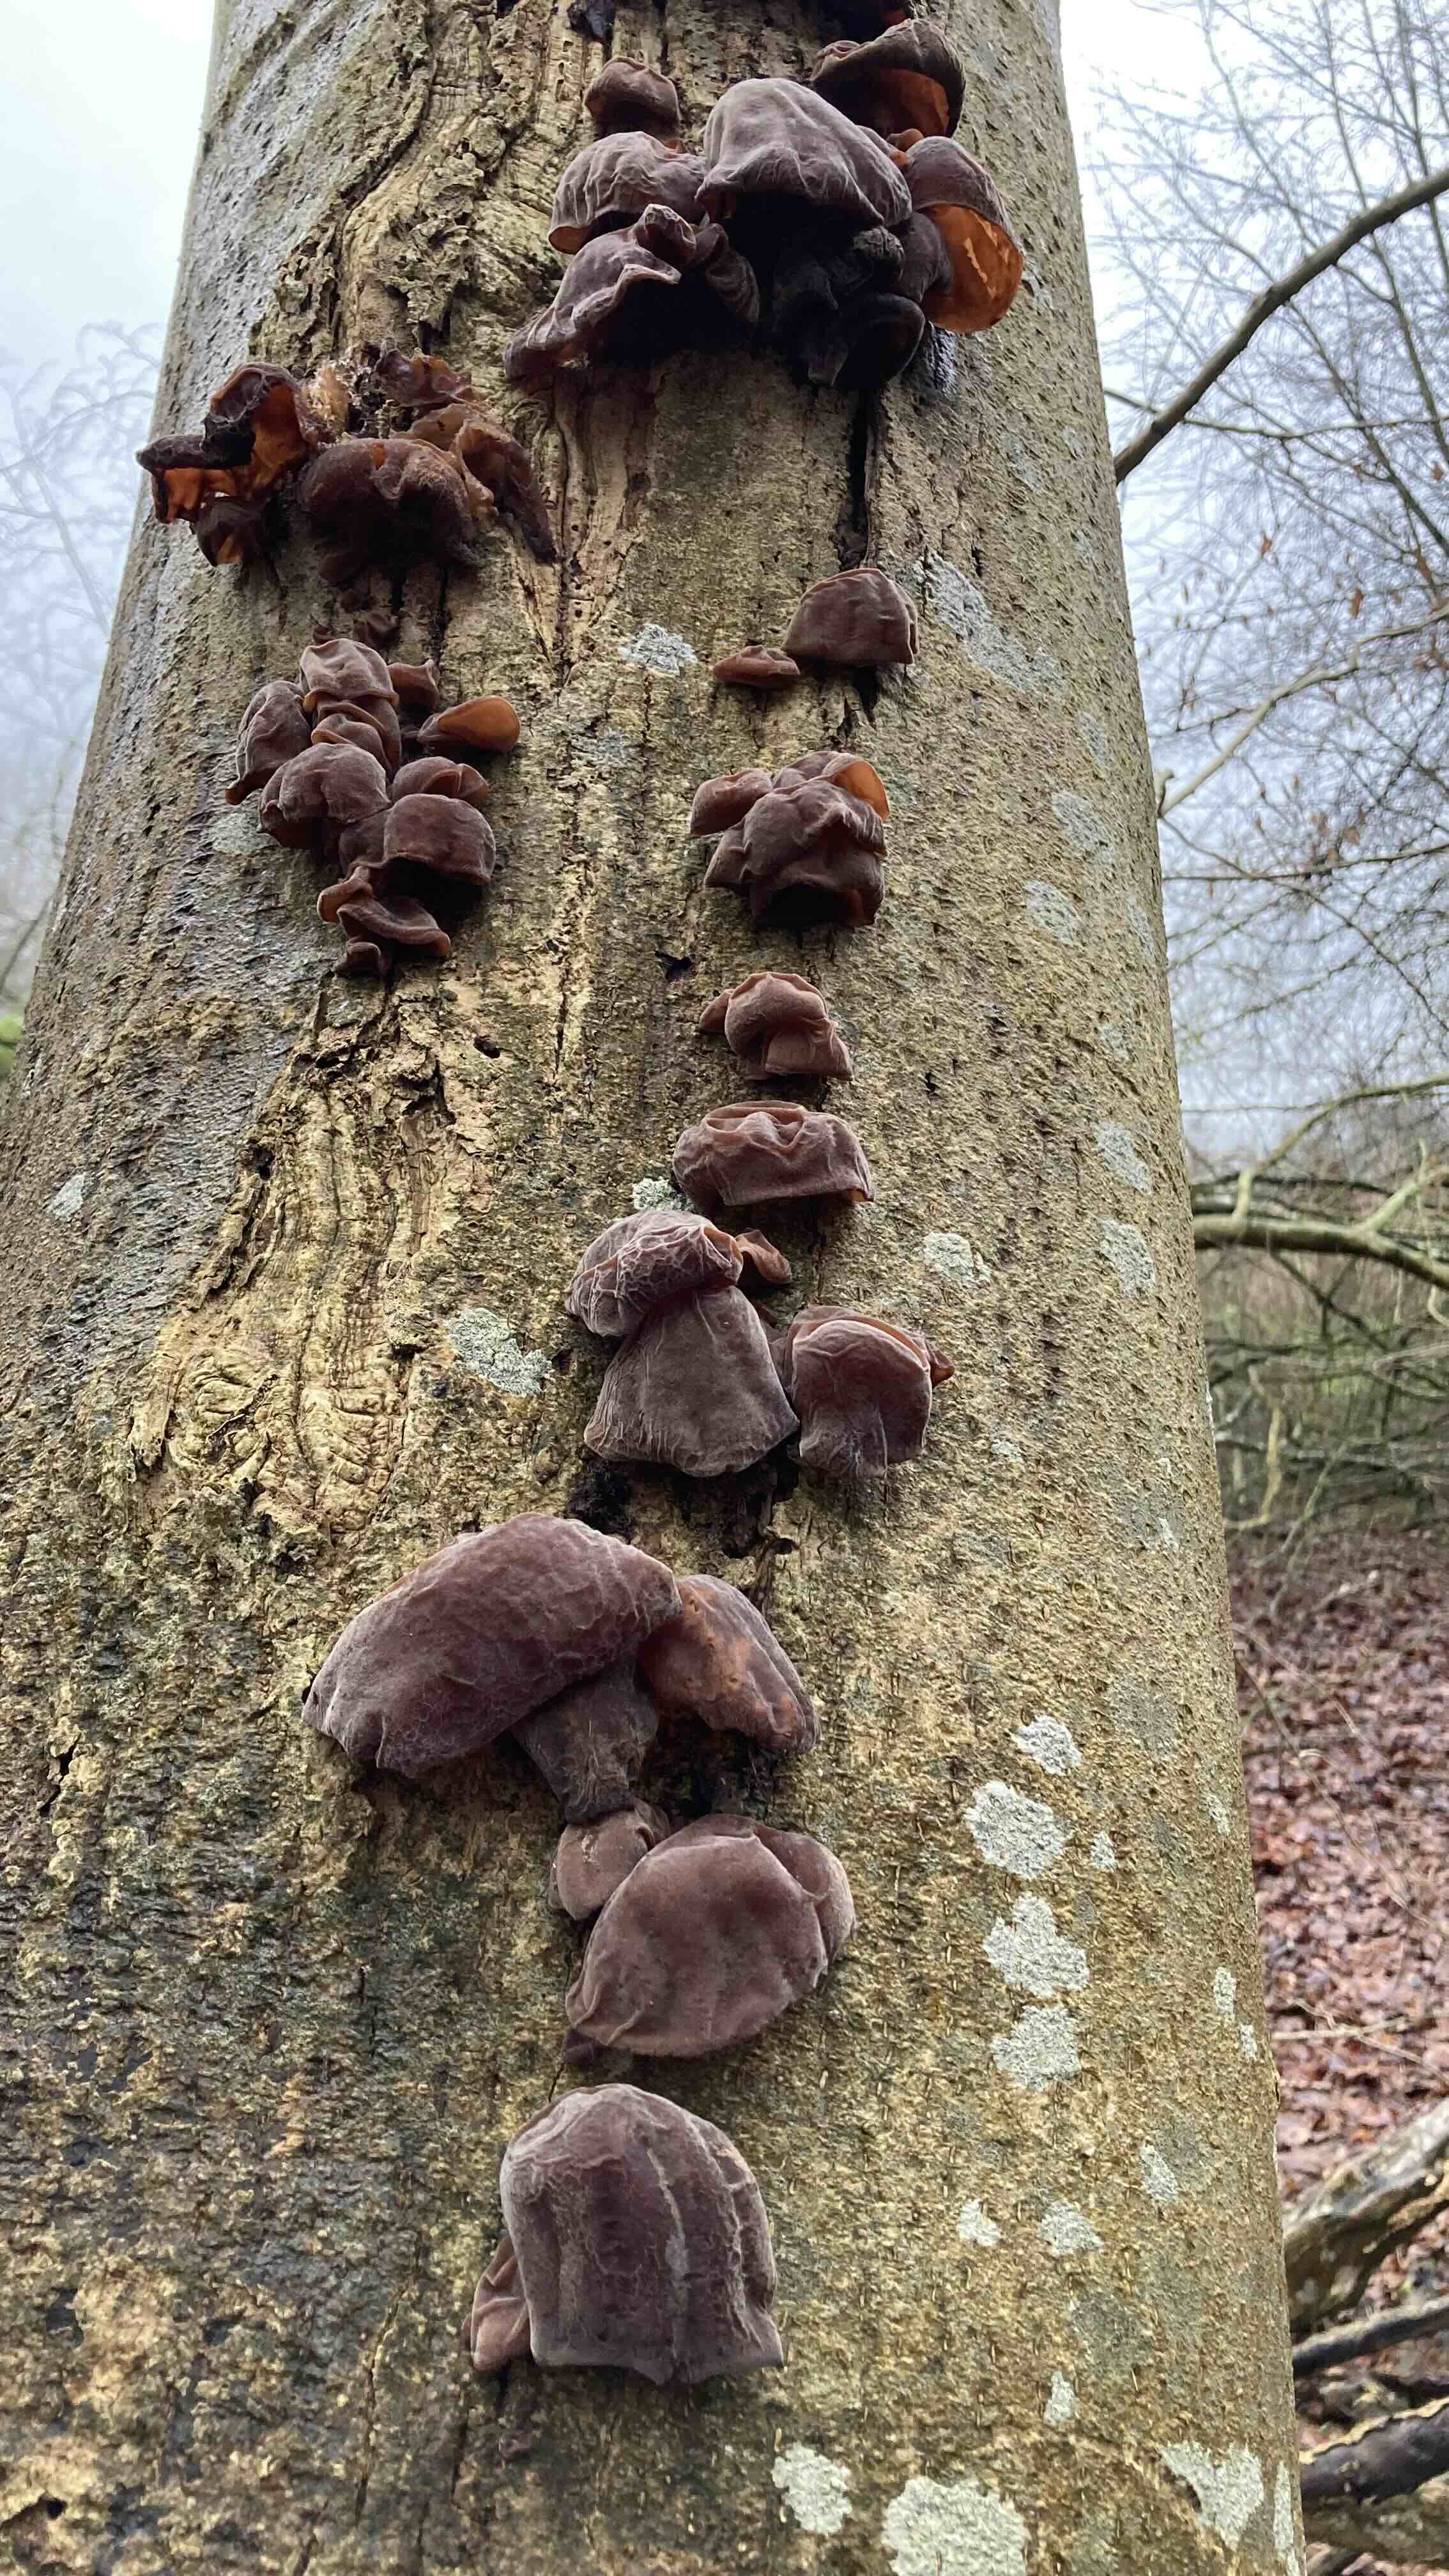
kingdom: Fungi
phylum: Basidiomycota
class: Agaricomycetes
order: Auriculariales
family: Auriculariaceae
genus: Auricularia
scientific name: Auricularia auricula-judae
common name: almindelig judasøre
